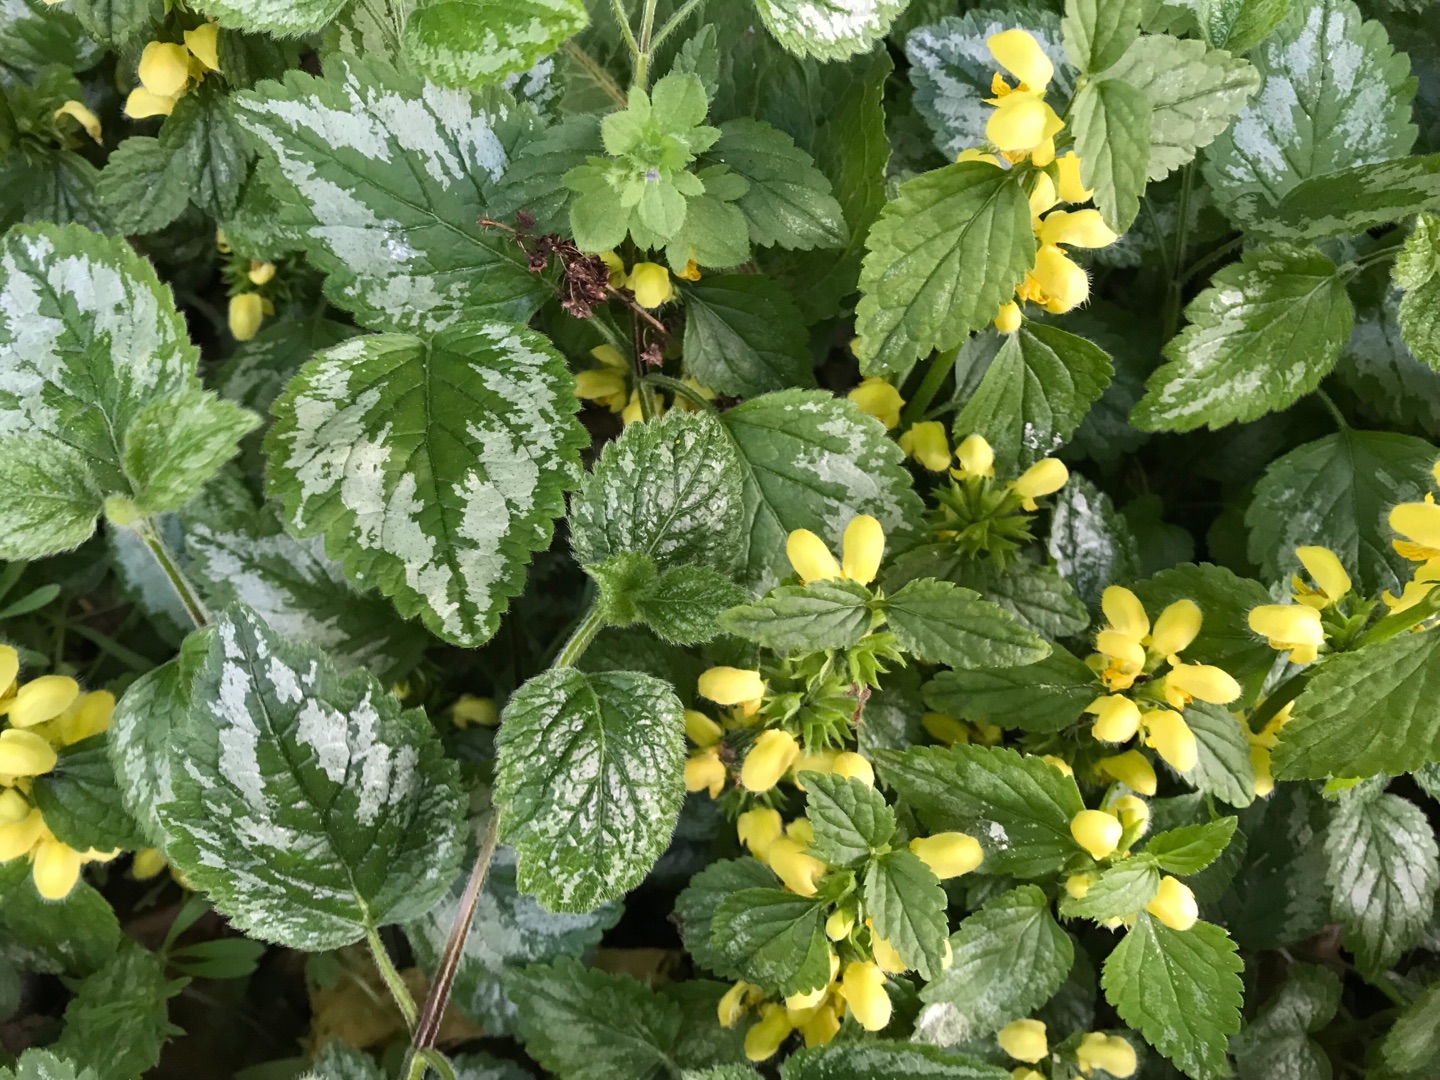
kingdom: Plantae
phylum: Tracheophyta
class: Magnoliopsida
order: Lamiales
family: Lamiaceae
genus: Lamium
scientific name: Lamium galeobdolon
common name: Have-guldnælde
